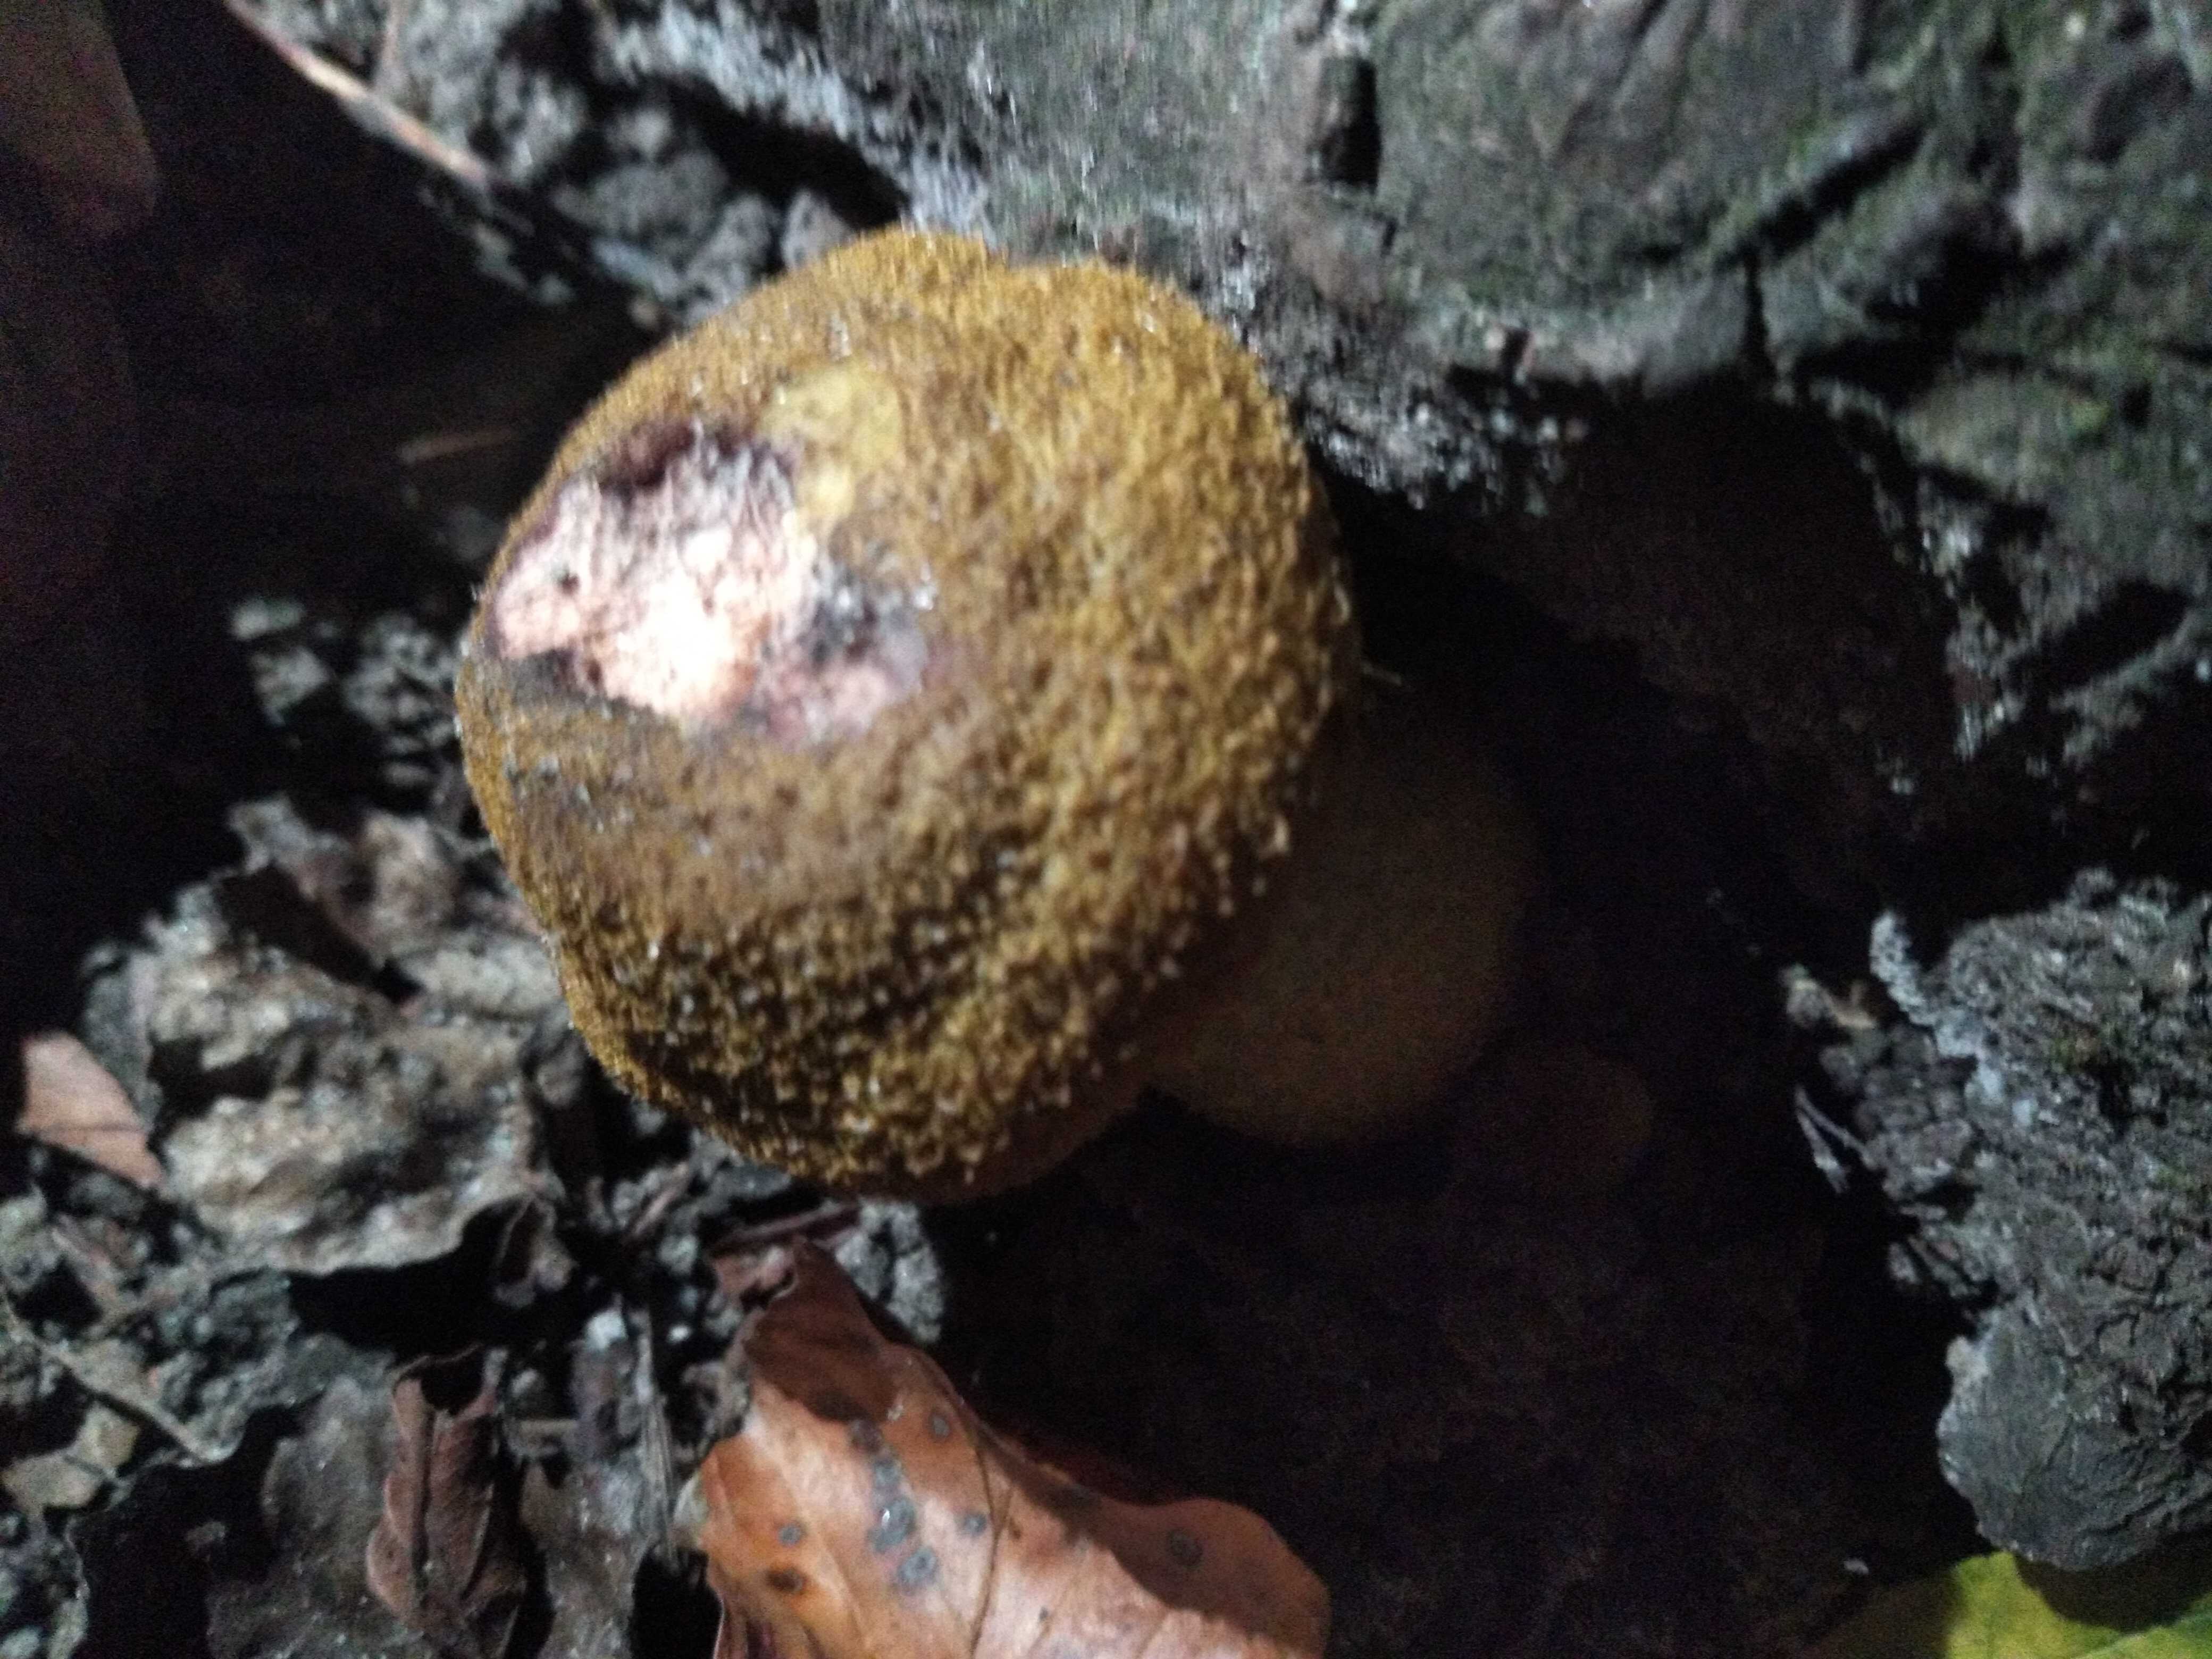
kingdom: Fungi
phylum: Basidiomycota
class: Agaricomycetes
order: Agaricales
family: Physalacriaceae
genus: Armillaria
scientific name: Armillaria lutea
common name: køllestokket honningsvamp
